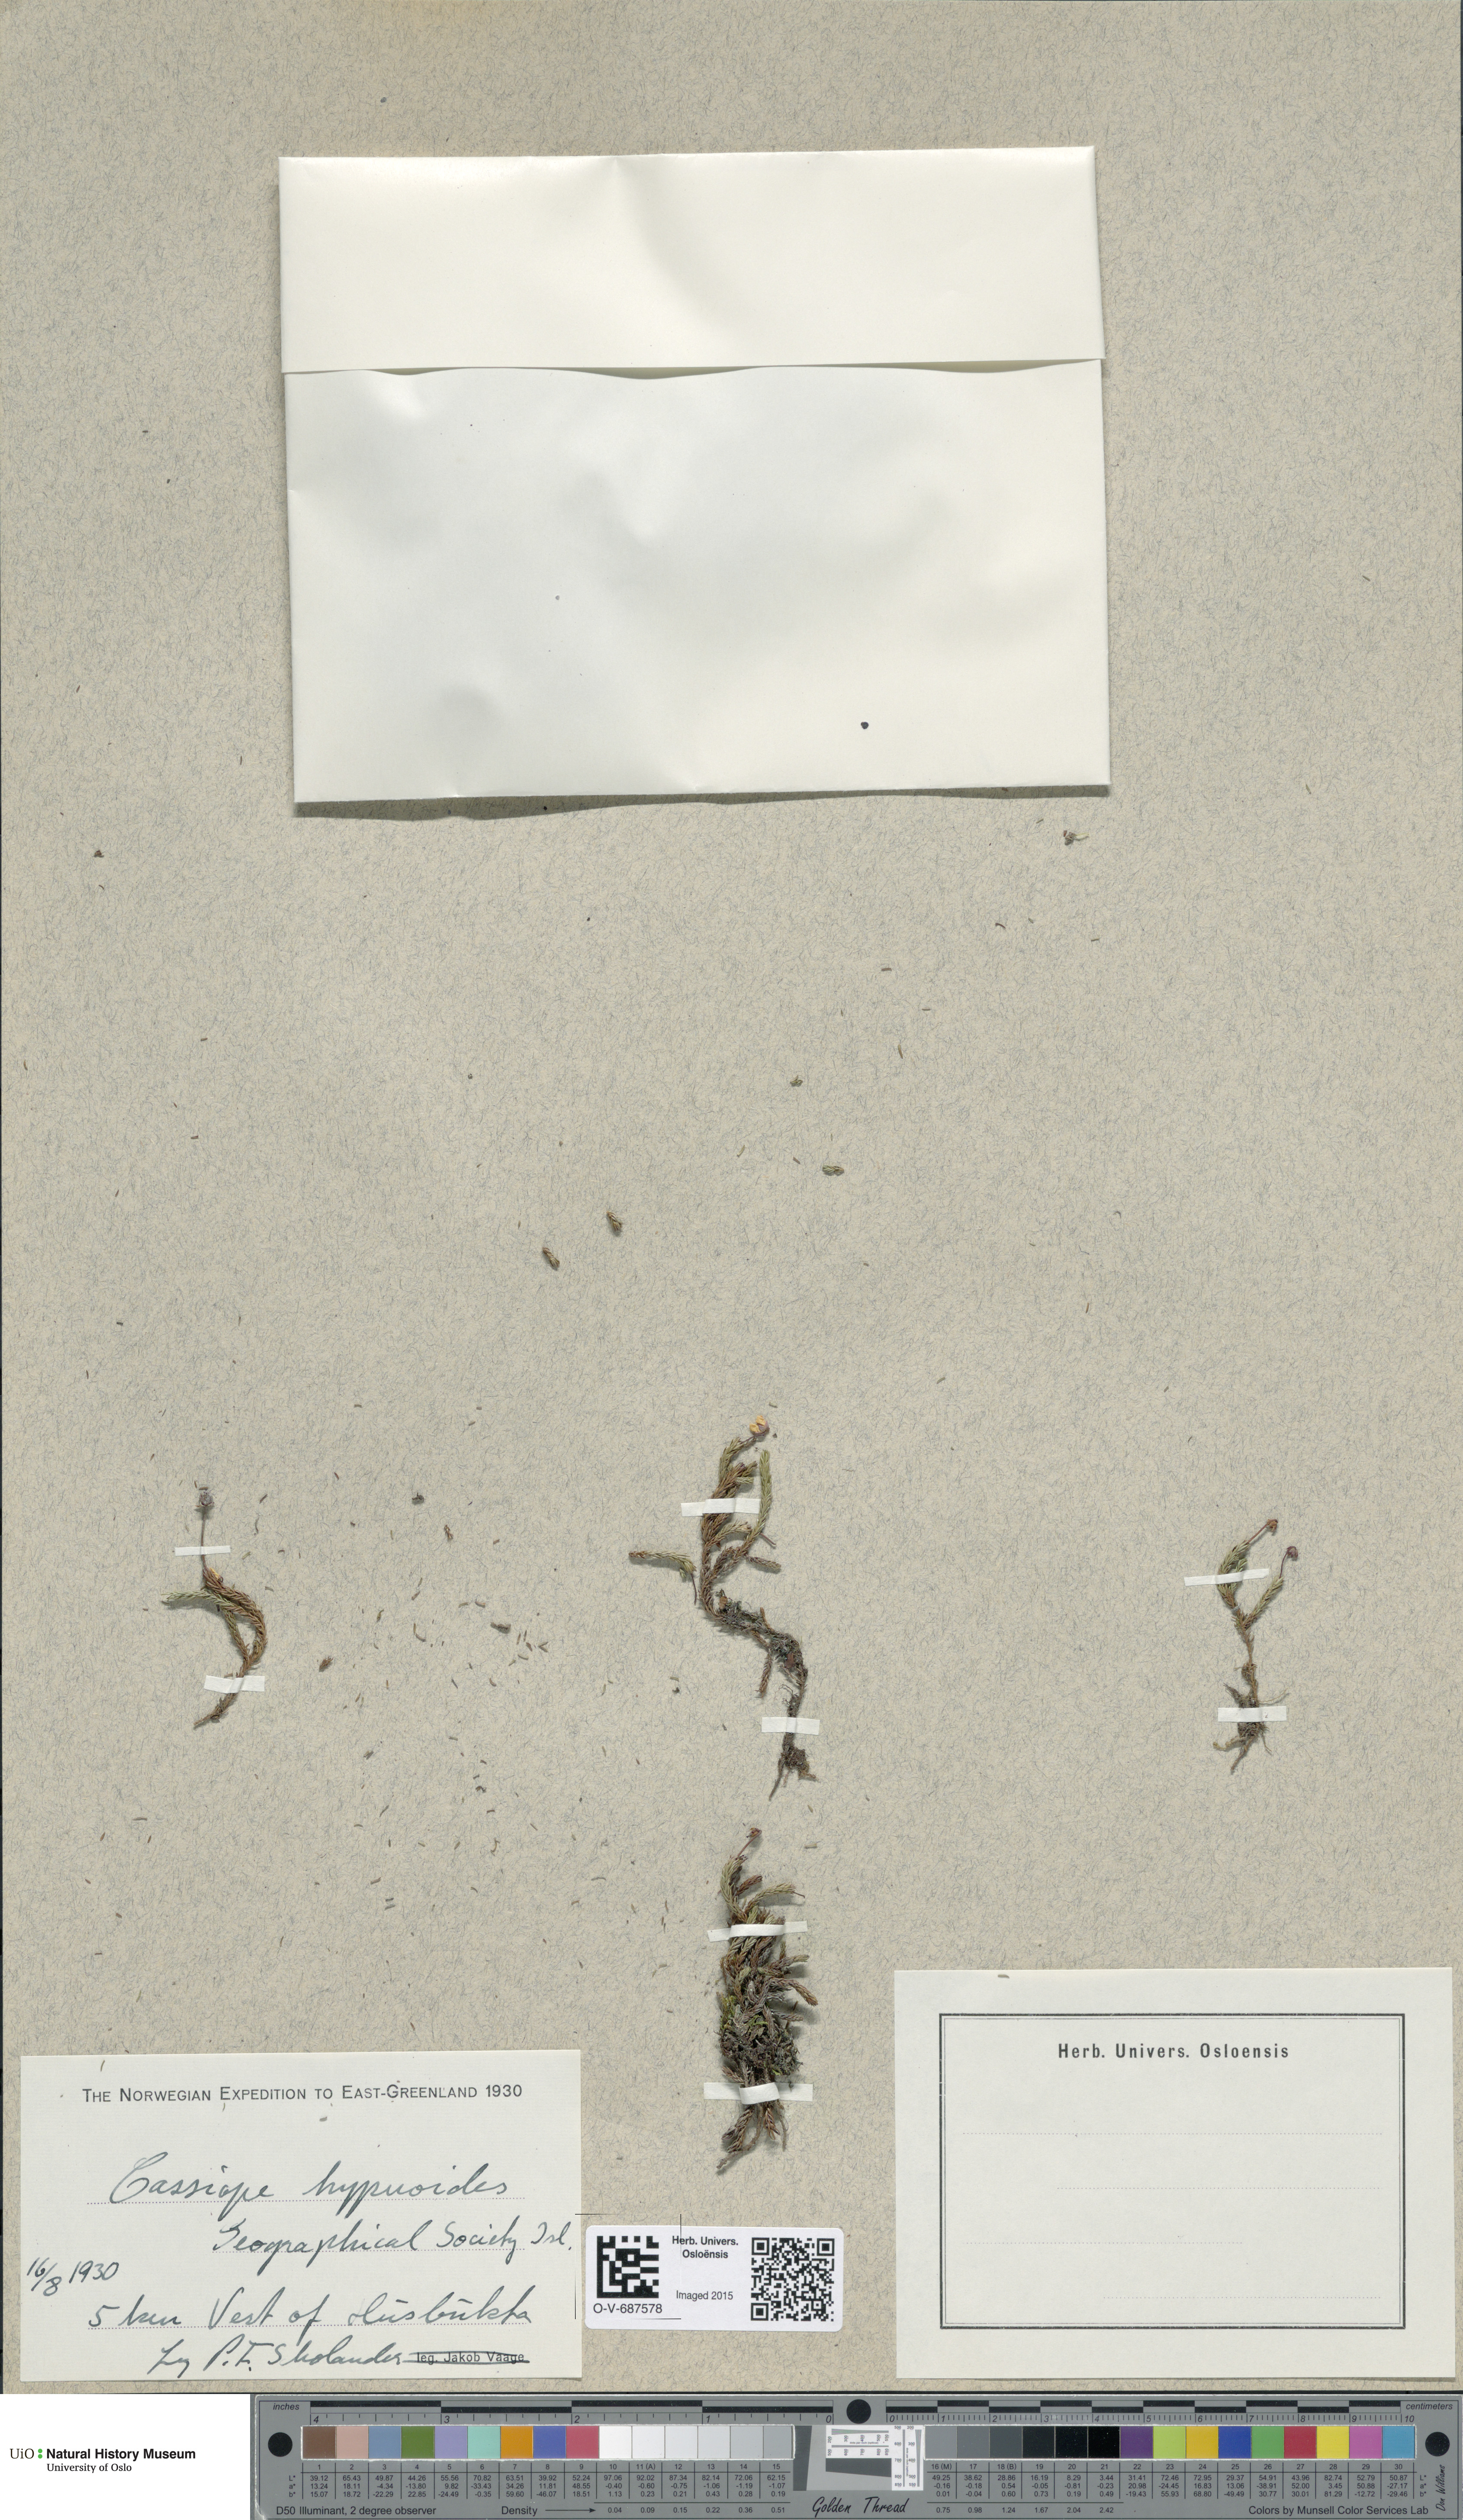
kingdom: Plantae
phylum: Tracheophyta
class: Magnoliopsida
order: Ericales
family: Ericaceae
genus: Harrimanella
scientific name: Harrimanella hypnoides
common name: Moss bell heather
